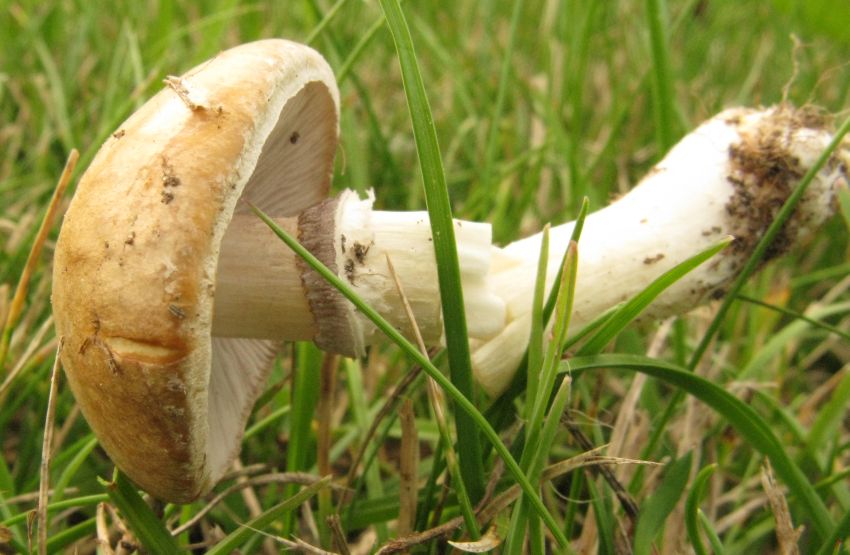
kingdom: Fungi
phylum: Basidiomycota
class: Agaricomycetes
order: Agaricales
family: Hymenogastraceae
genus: Psilocybe
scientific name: Psilocybe coronilla
